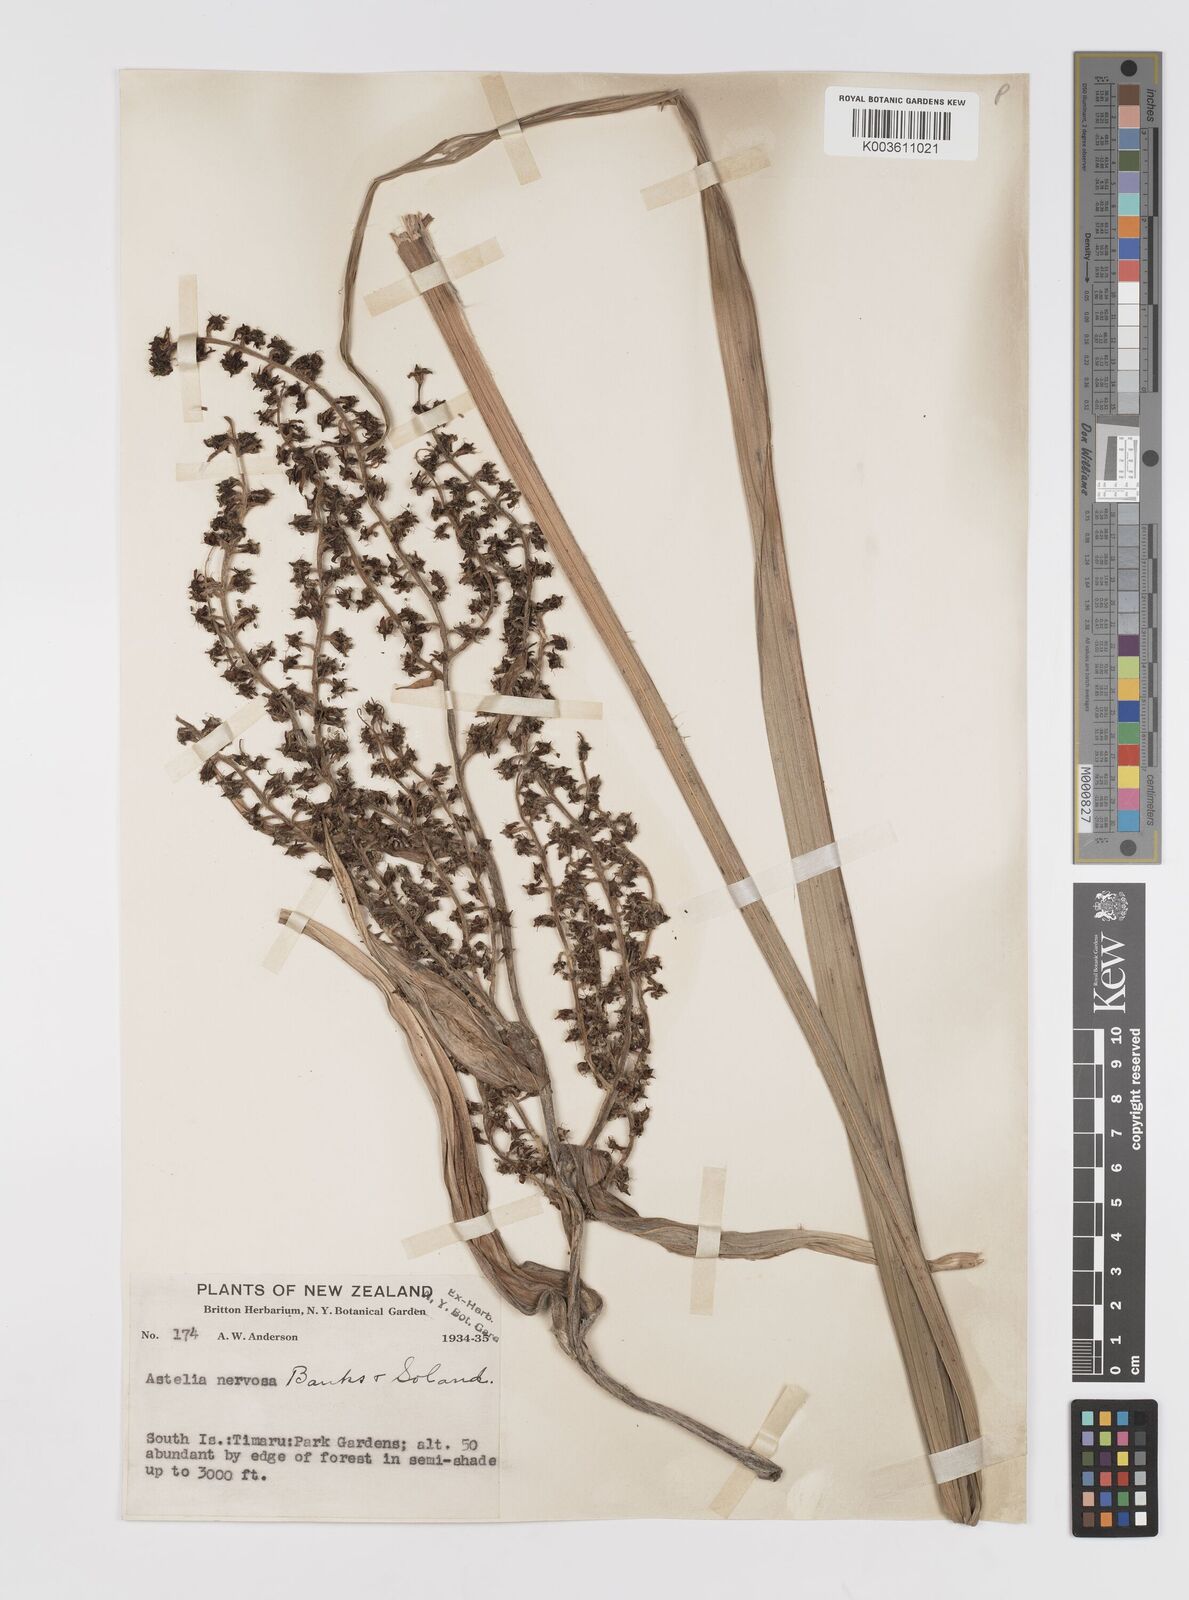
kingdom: Plantae
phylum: Tracheophyta
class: Liliopsida
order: Asparagales
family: Asteliaceae
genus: Astelia
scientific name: Astelia nervosa
